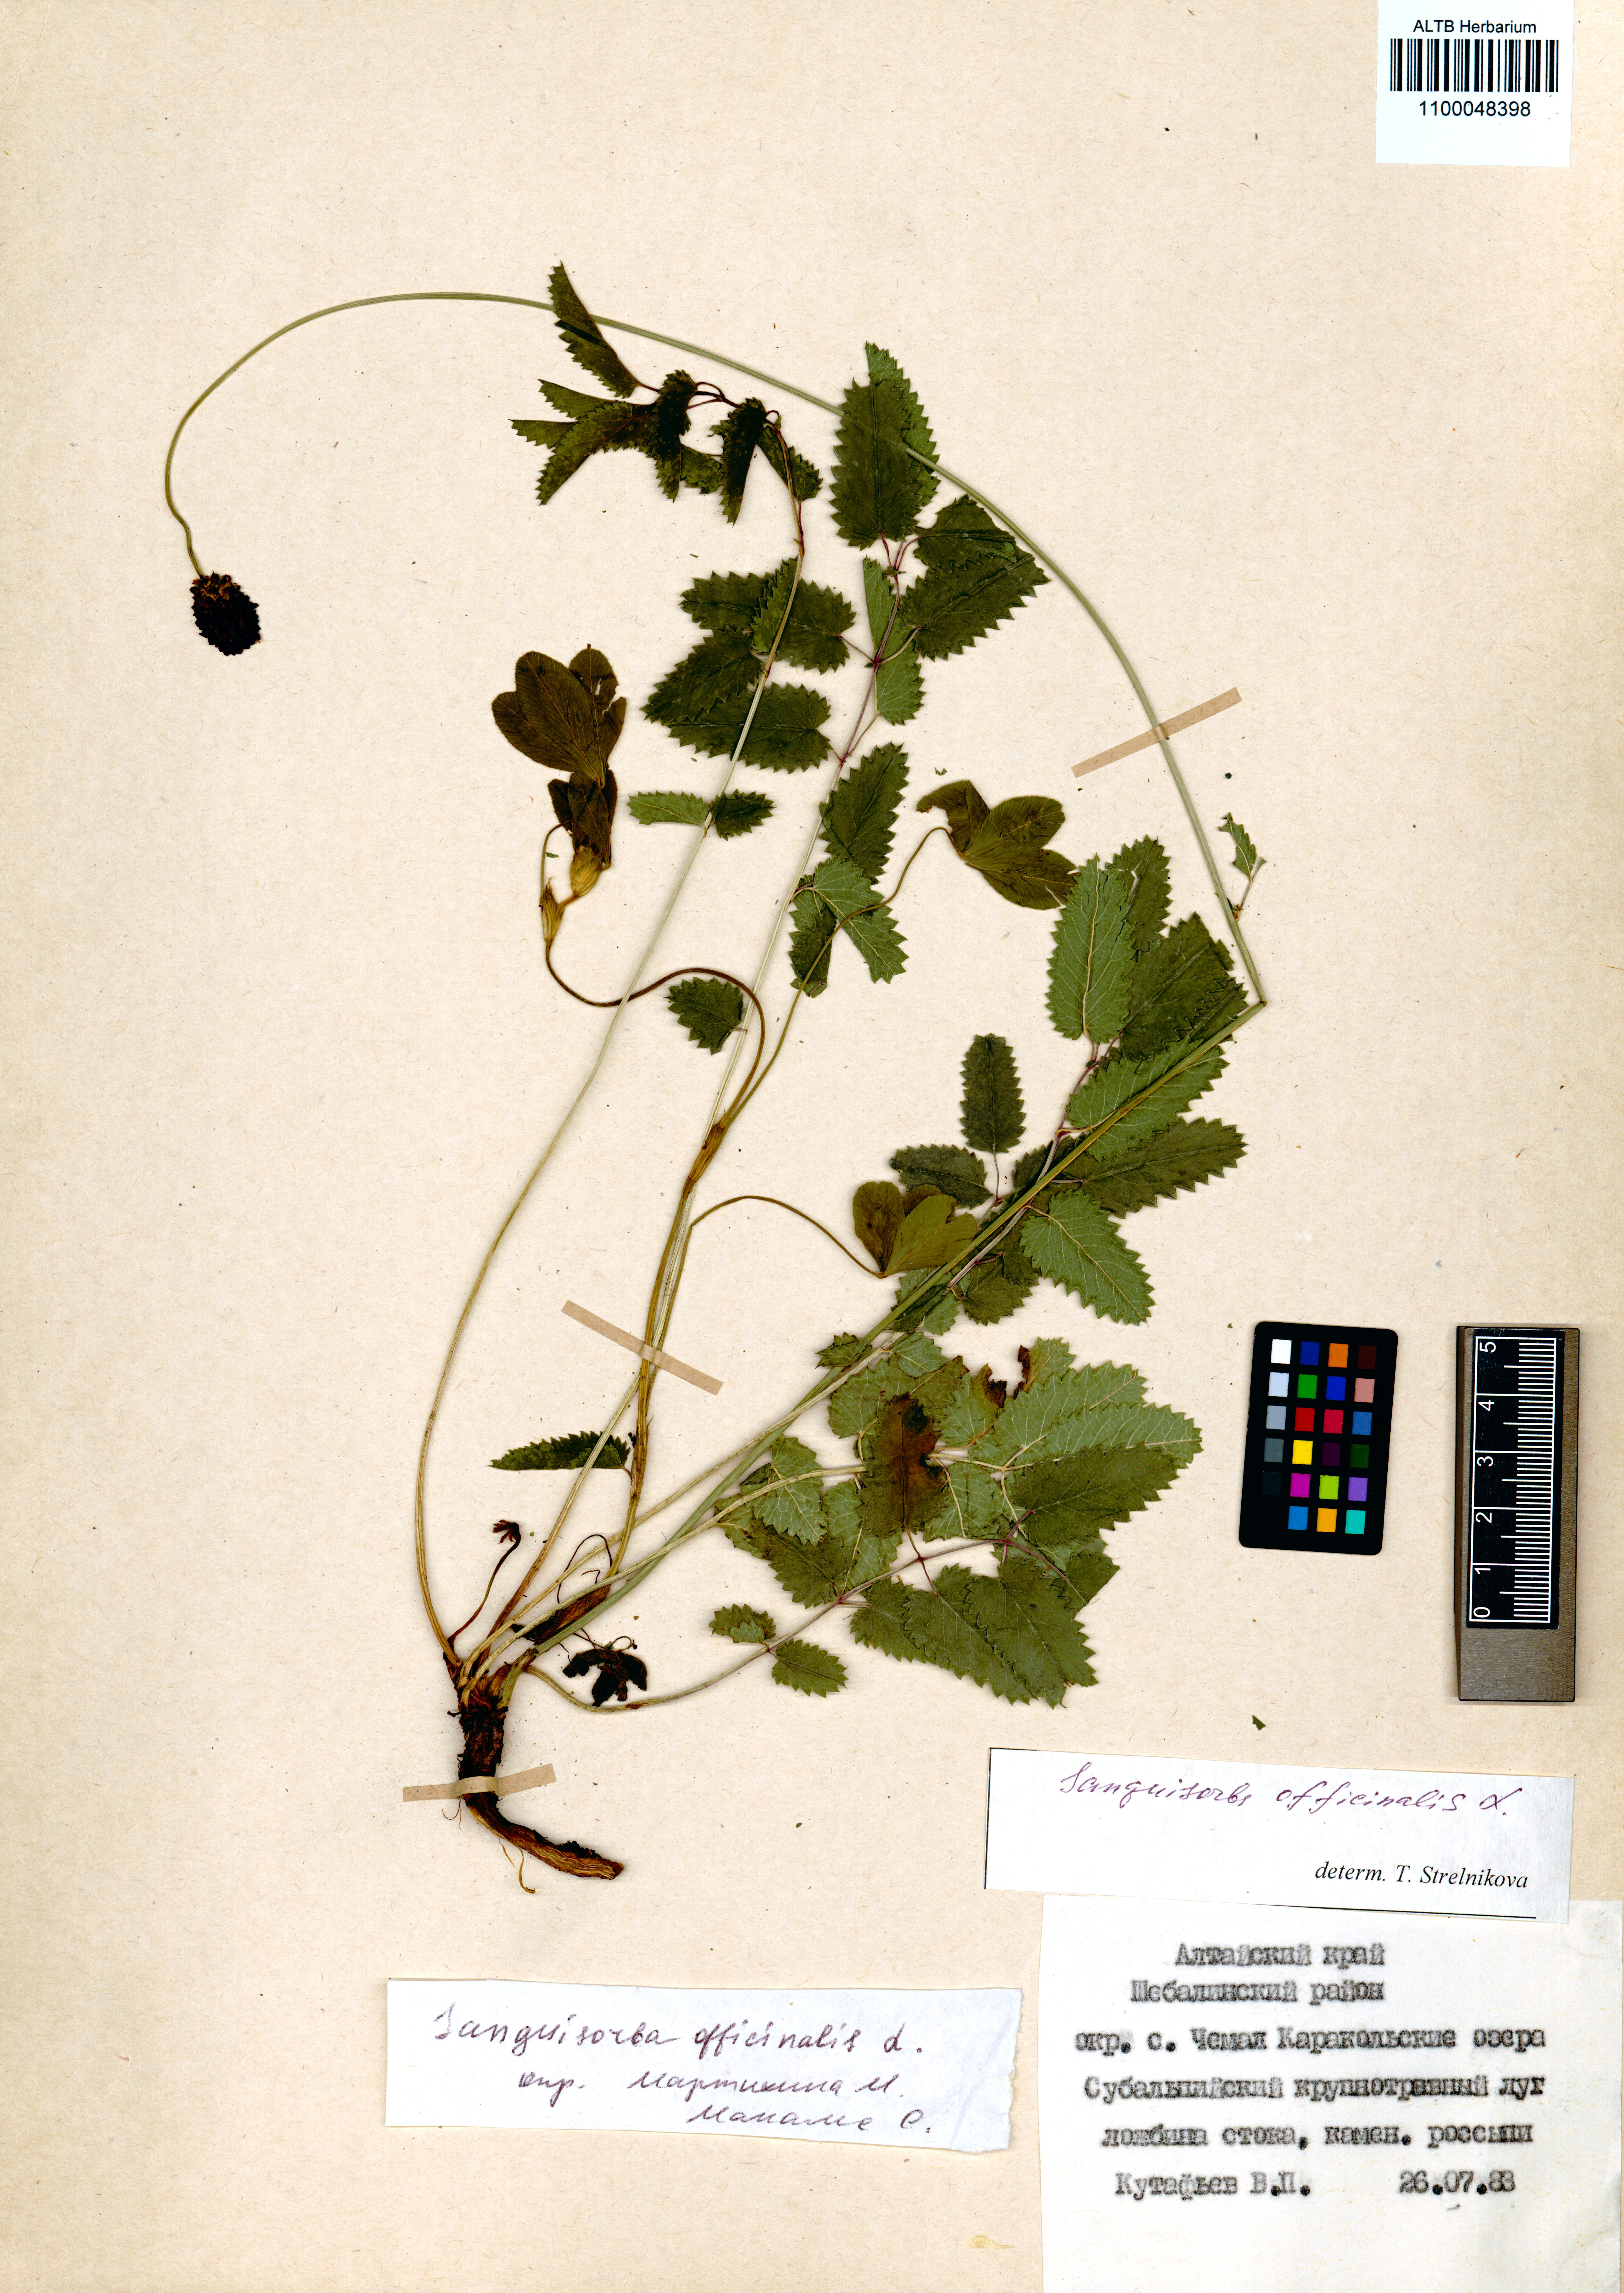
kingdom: Plantae
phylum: Tracheophyta
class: Magnoliopsida
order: Rosales
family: Rosaceae
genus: Sanguisorba
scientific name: Sanguisorba officinalis
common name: Great burnet
